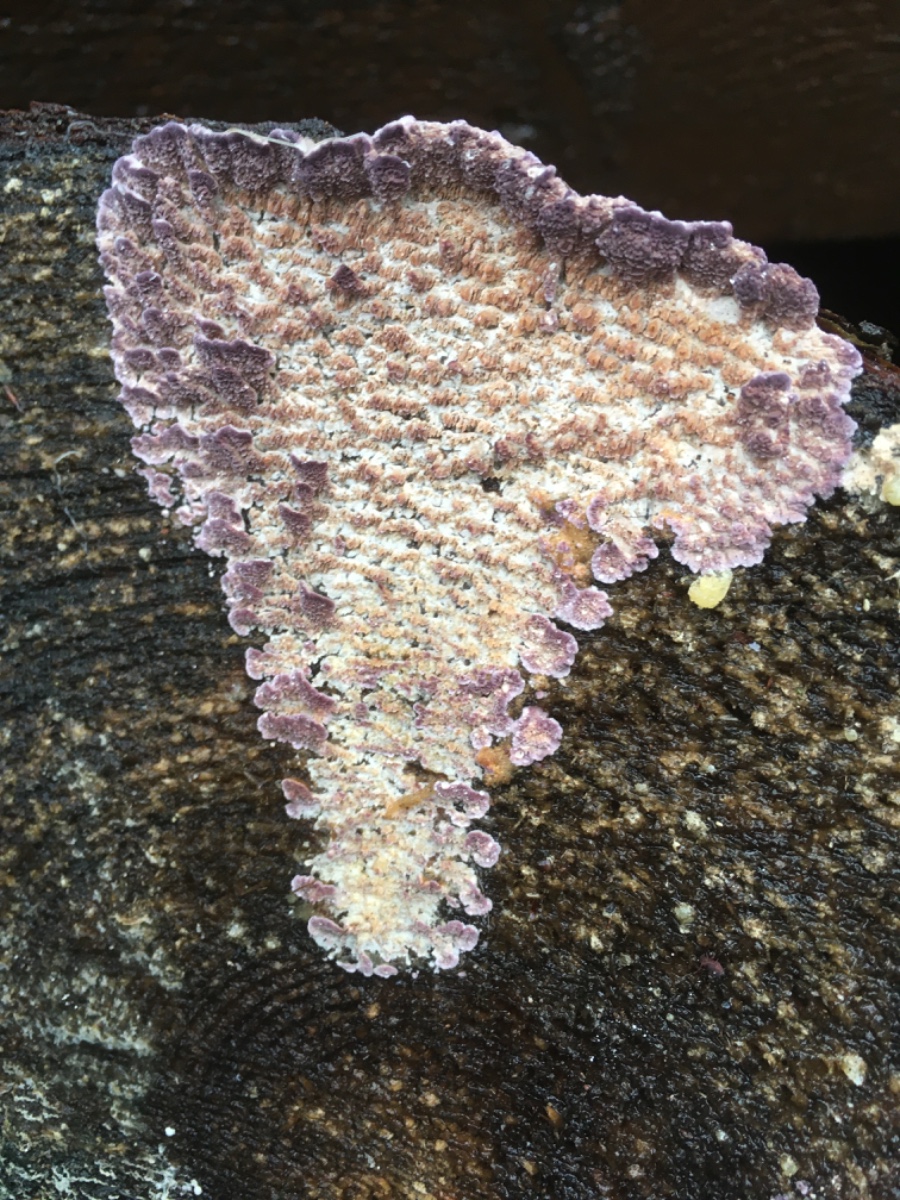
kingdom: Fungi
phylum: Basidiomycota
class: Agaricomycetes
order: Hymenochaetales
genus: Trichaptum
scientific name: Trichaptum fuscoviolaceum
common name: tandet violporesvamp
